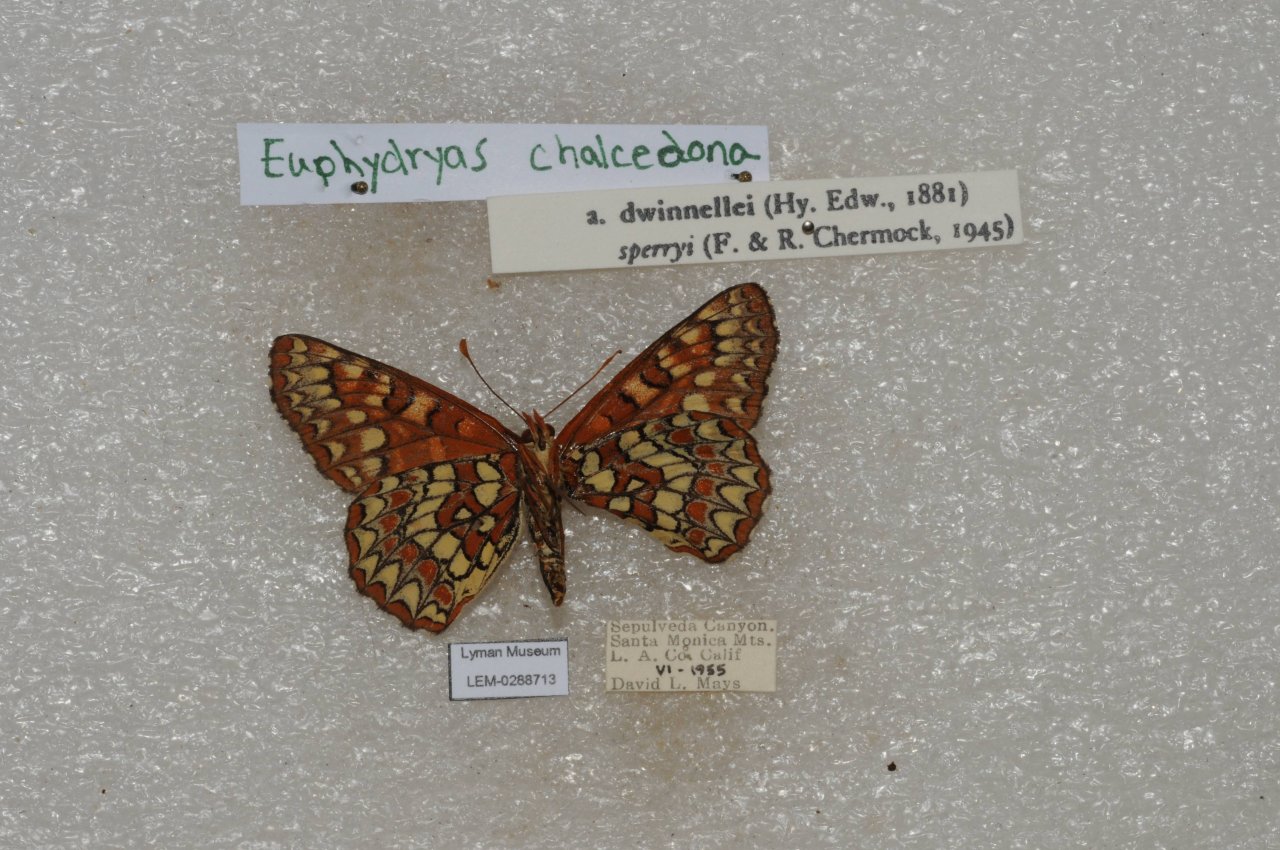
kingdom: Animalia
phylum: Arthropoda
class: Insecta
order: Lepidoptera
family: Nymphalidae
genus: Occidryas
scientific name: Occidryas chalcedona
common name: Chalcedon Checkerspot
